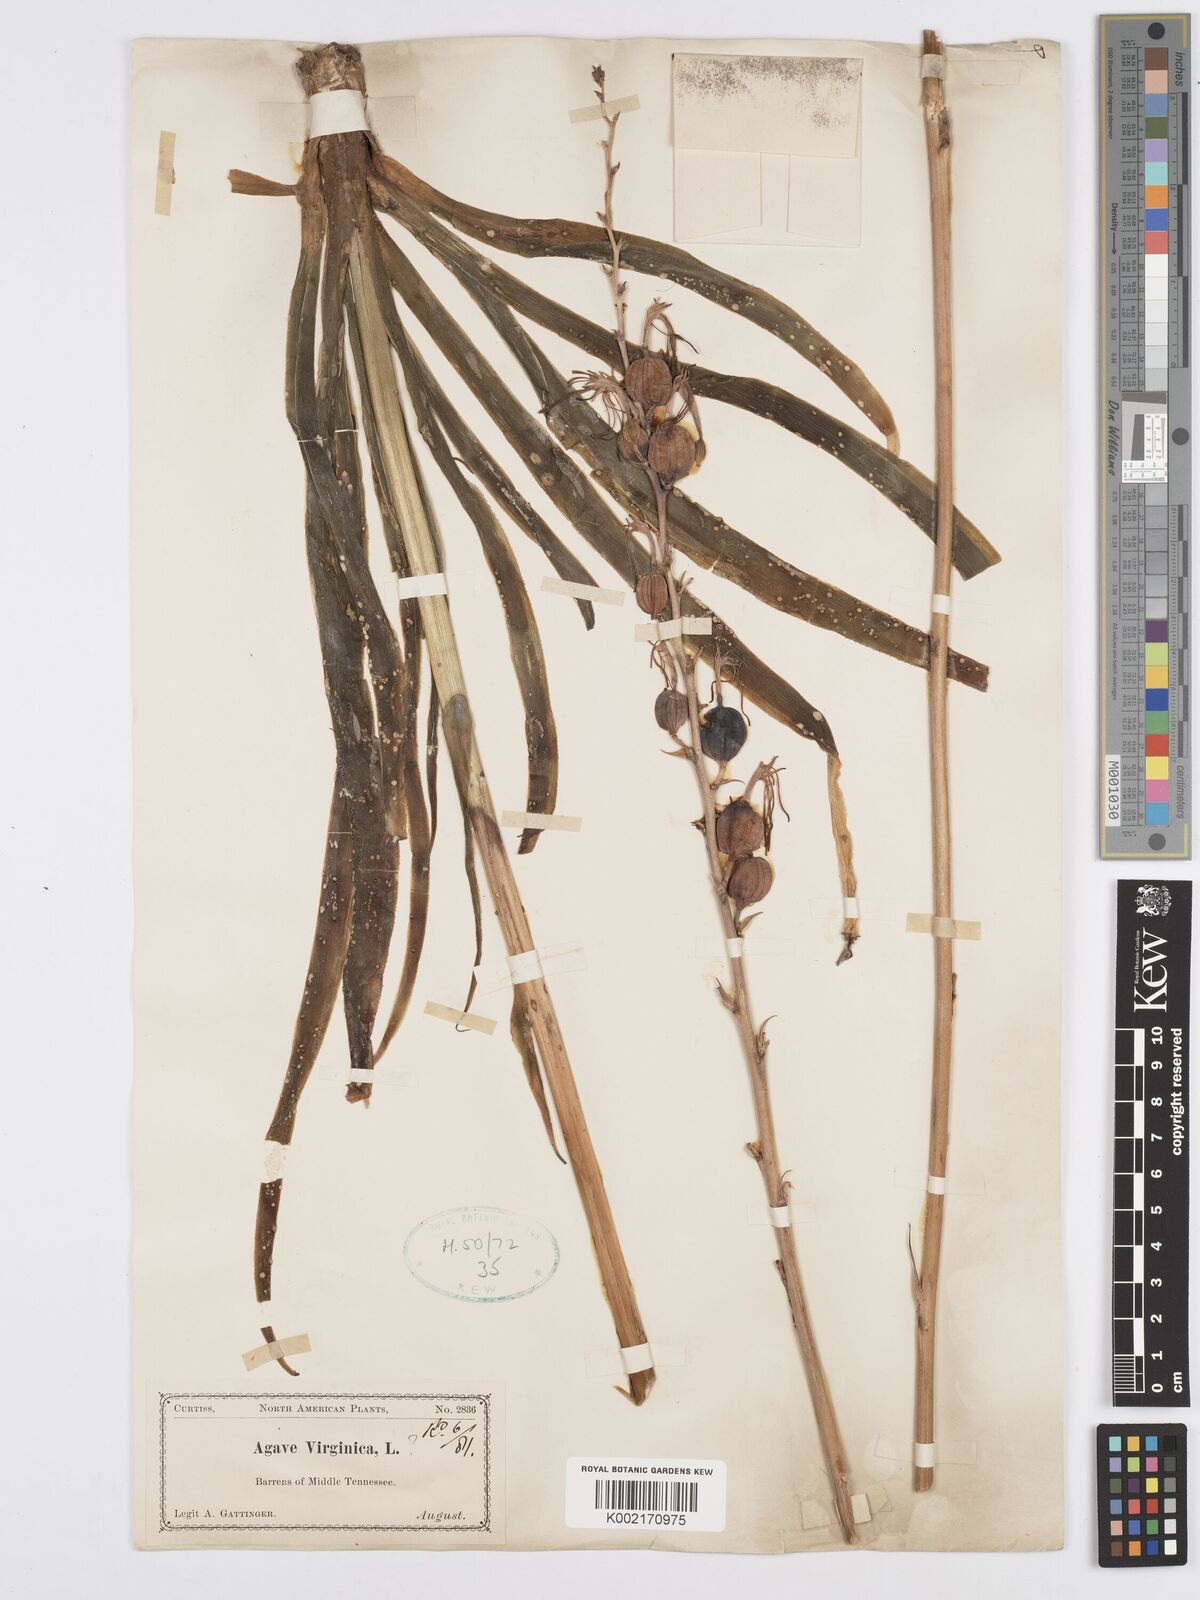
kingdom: Plantae
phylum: Tracheophyta
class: Liliopsida
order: Asparagales
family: Asparagaceae
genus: Agave
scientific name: Agave virginica
